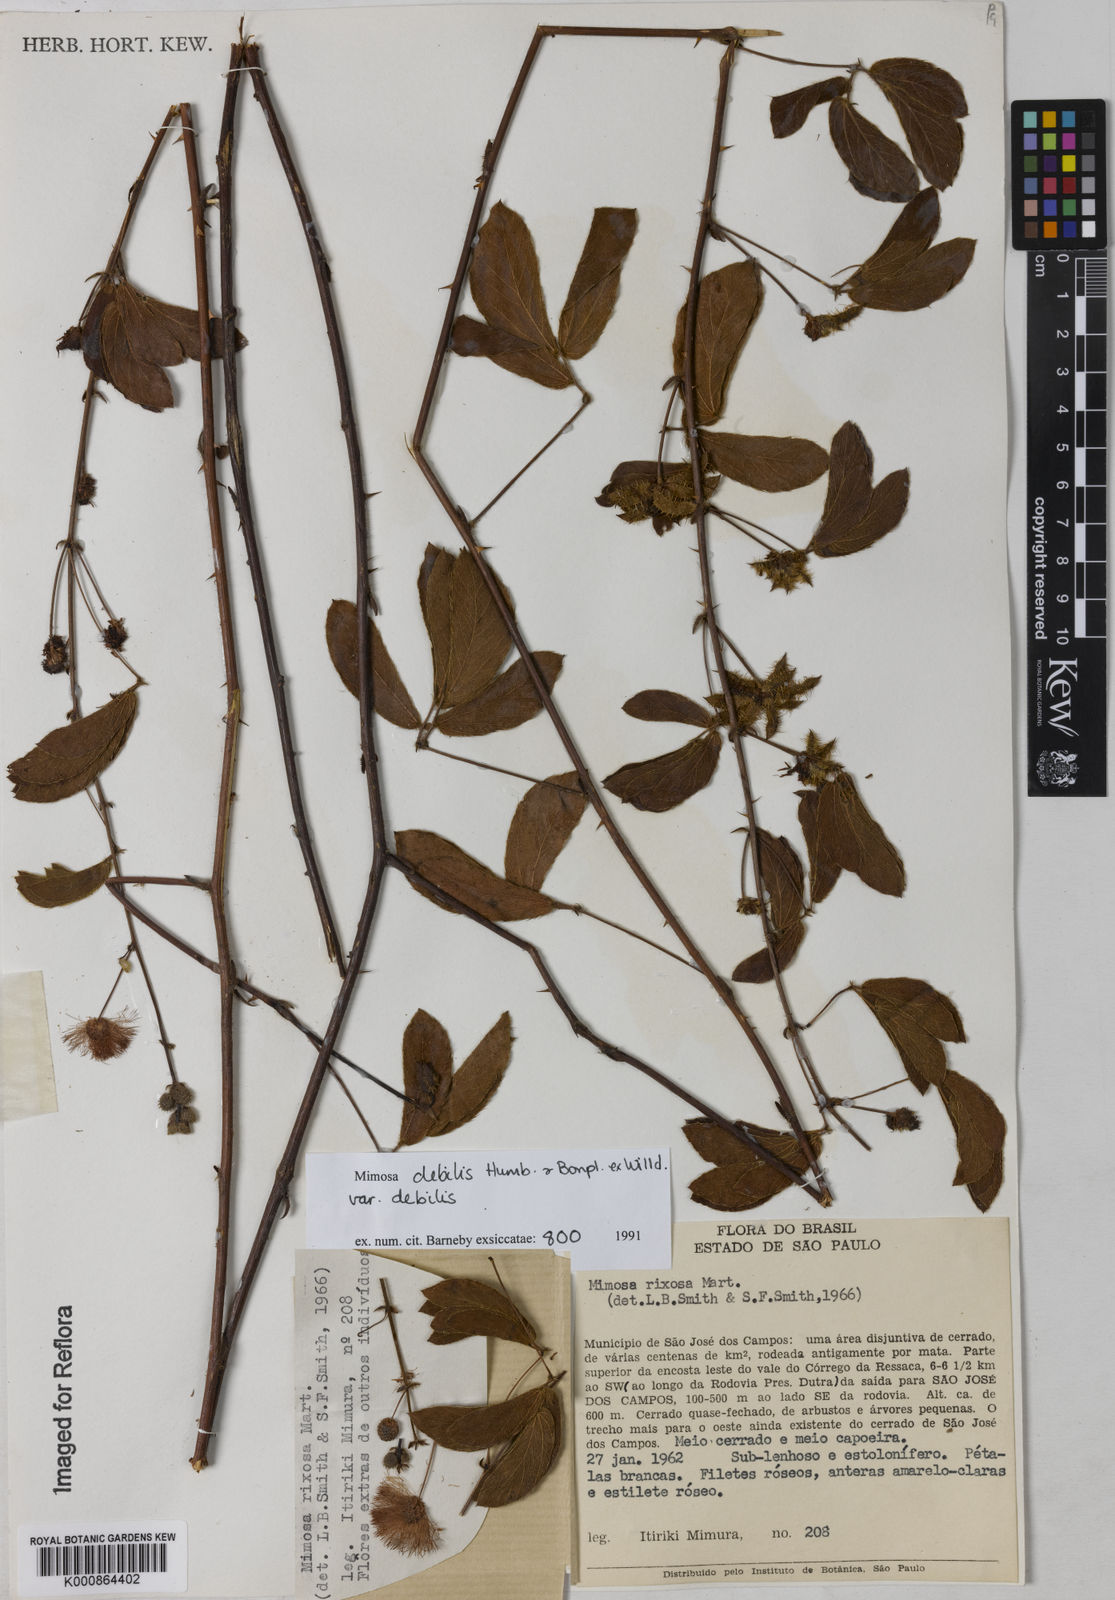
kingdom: Plantae
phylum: Tracheophyta
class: Magnoliopsida
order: Fabales
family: Fabaceae
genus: Mimosa
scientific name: Mimosa debilis
